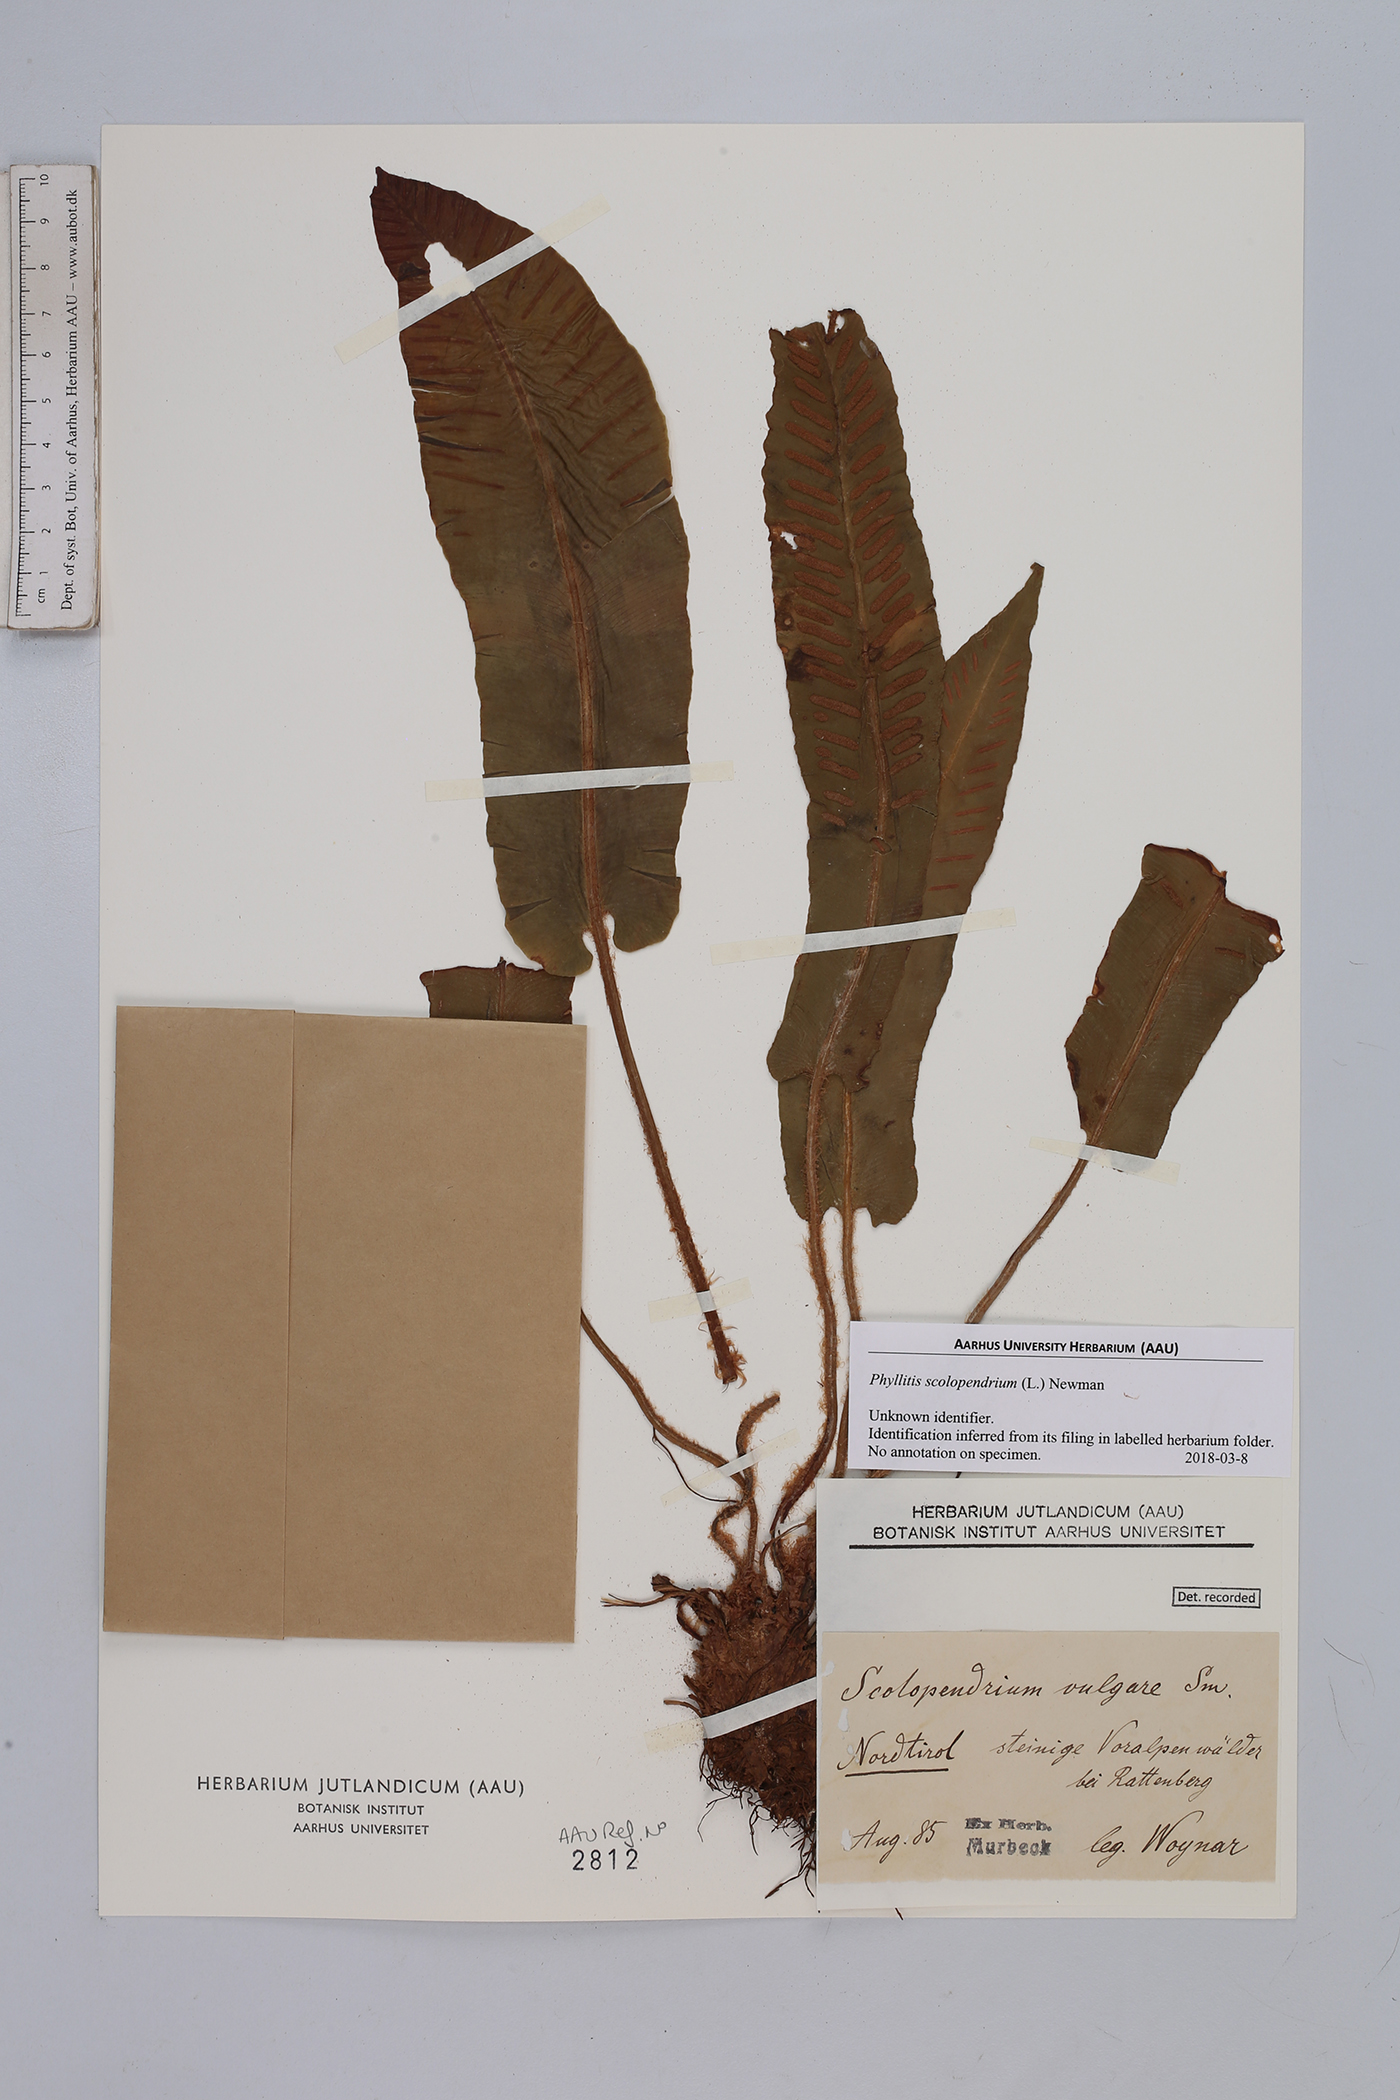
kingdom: Plantae
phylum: Tracheophyta
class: Polypodiopsida
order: Polypodiales
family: Aspleniaceae
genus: Asplenium
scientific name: Asplenium scolopendrium
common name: Hart's-tongue fern
